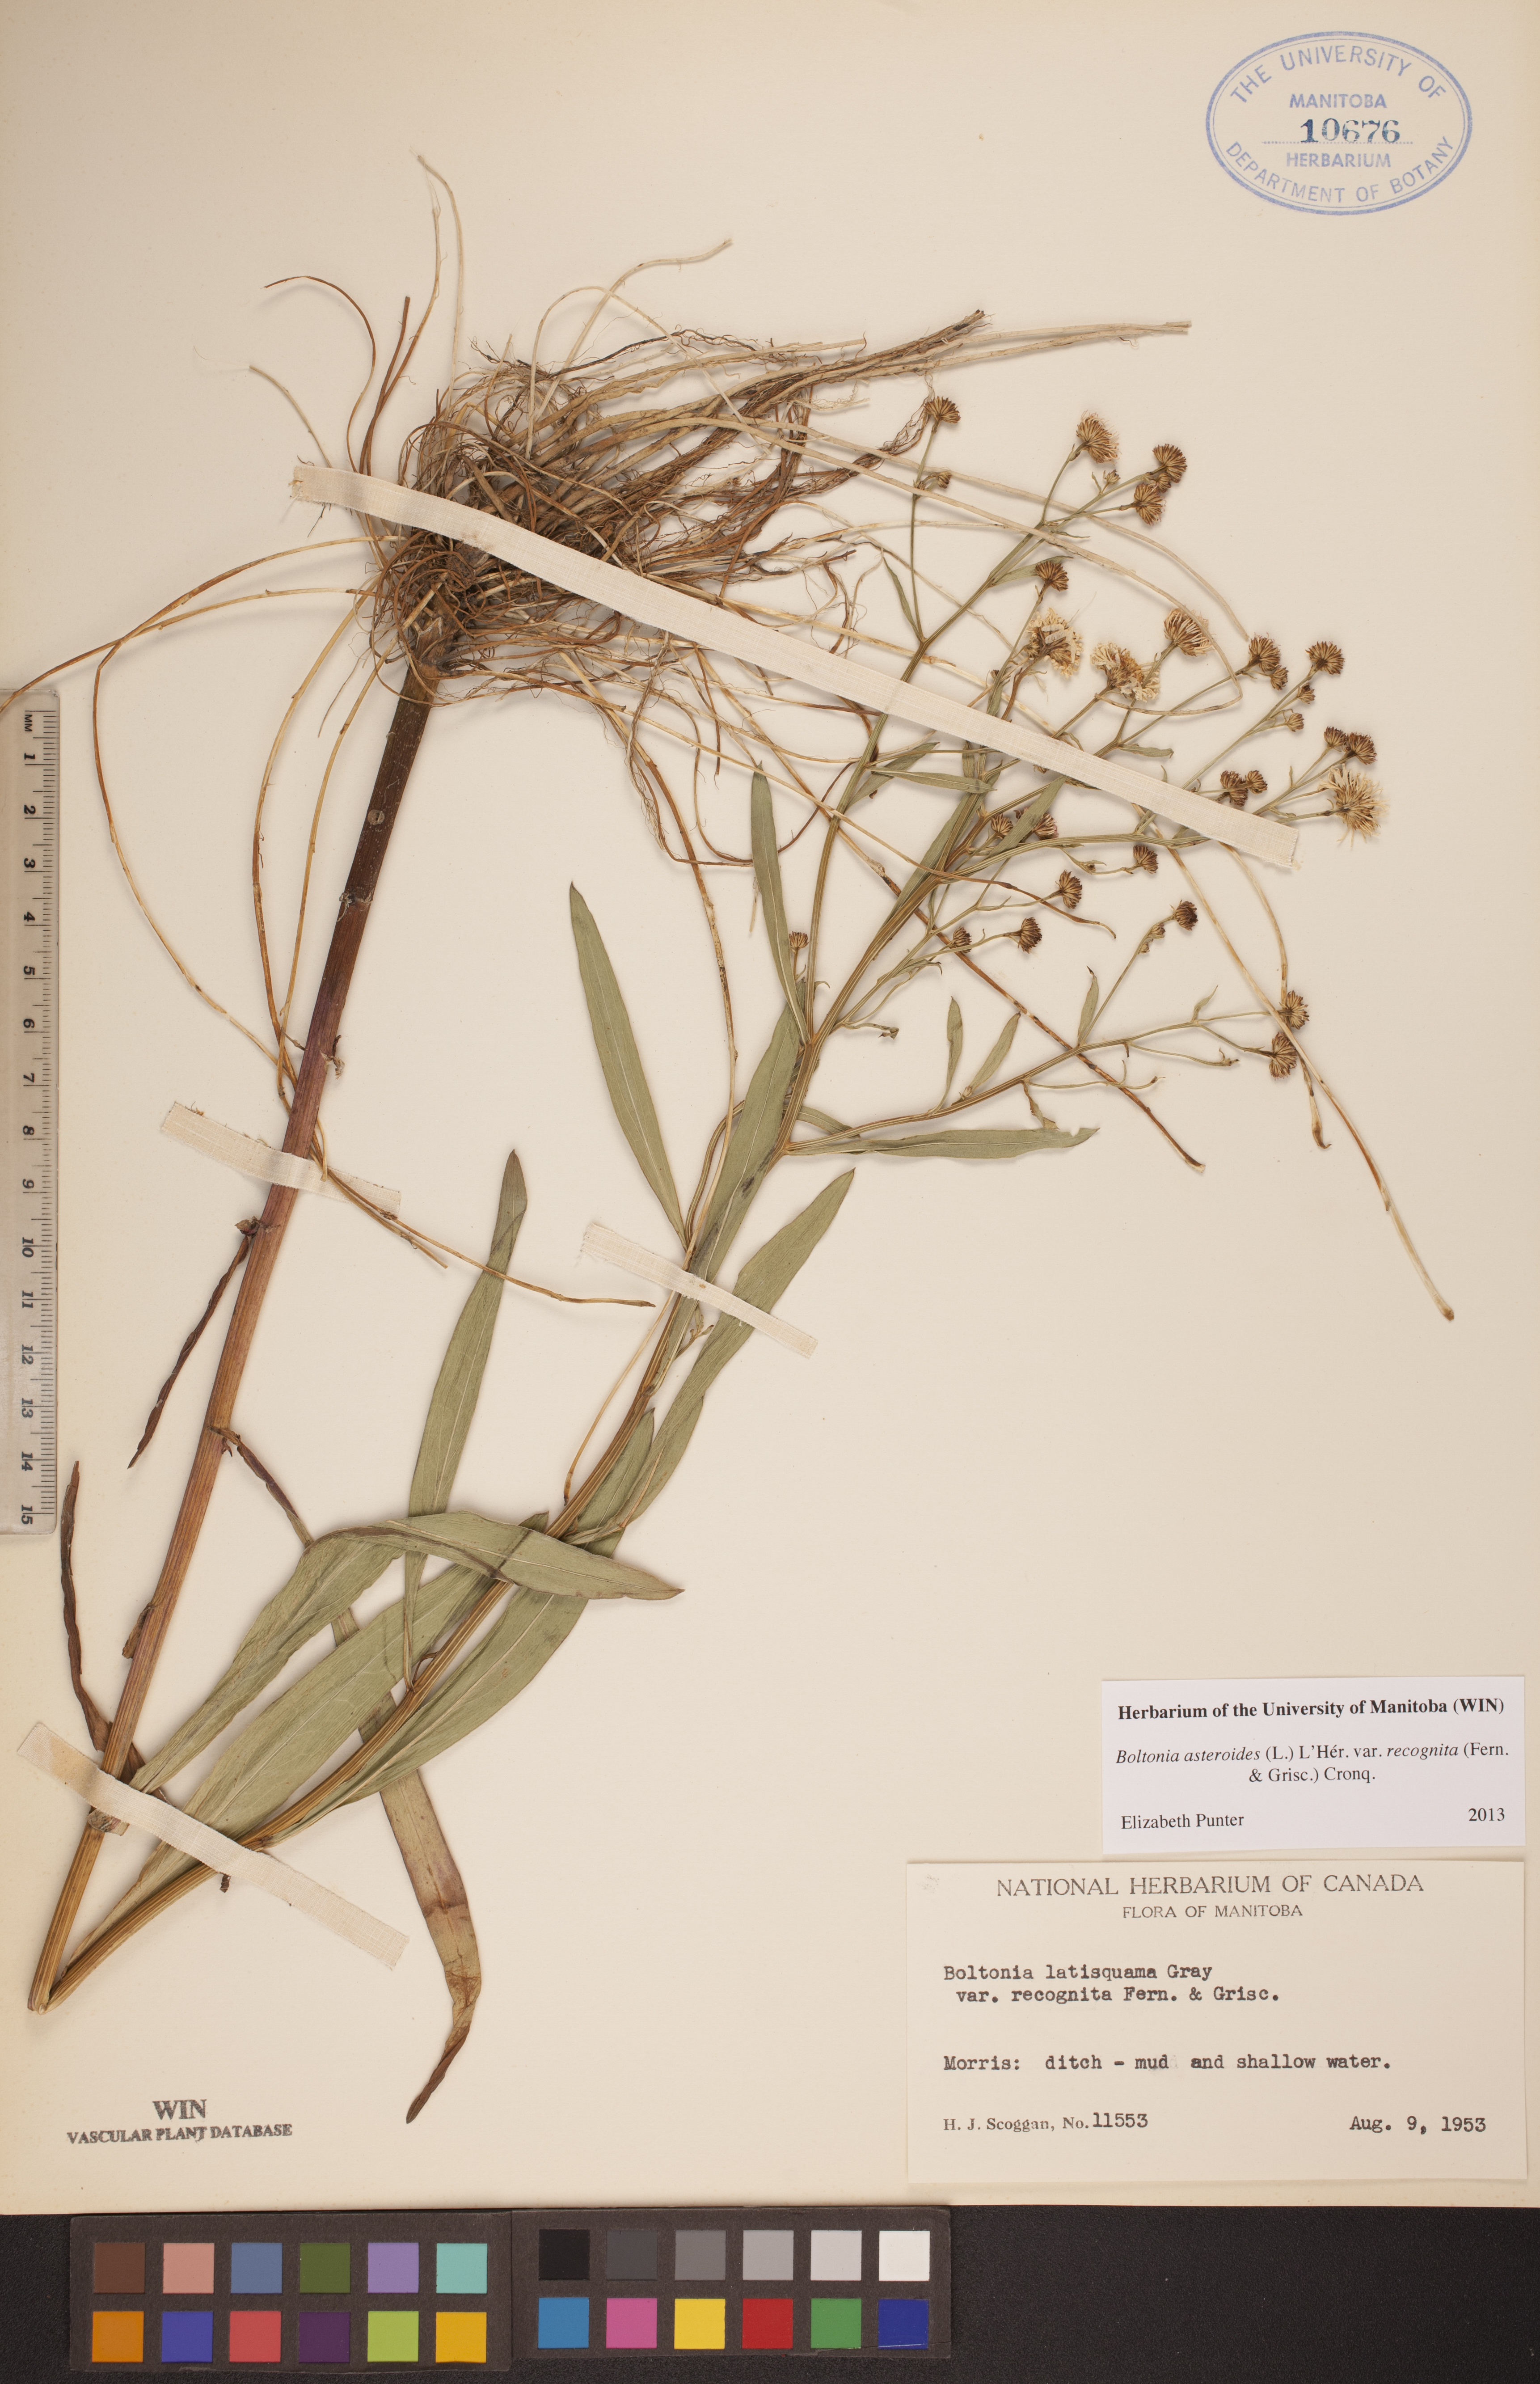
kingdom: Plantae
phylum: Tracheophyta
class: Magnoliopsida
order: Asterales
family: Asteraceae
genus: Boltonia
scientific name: Boltonia asteroides
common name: False chamomile
